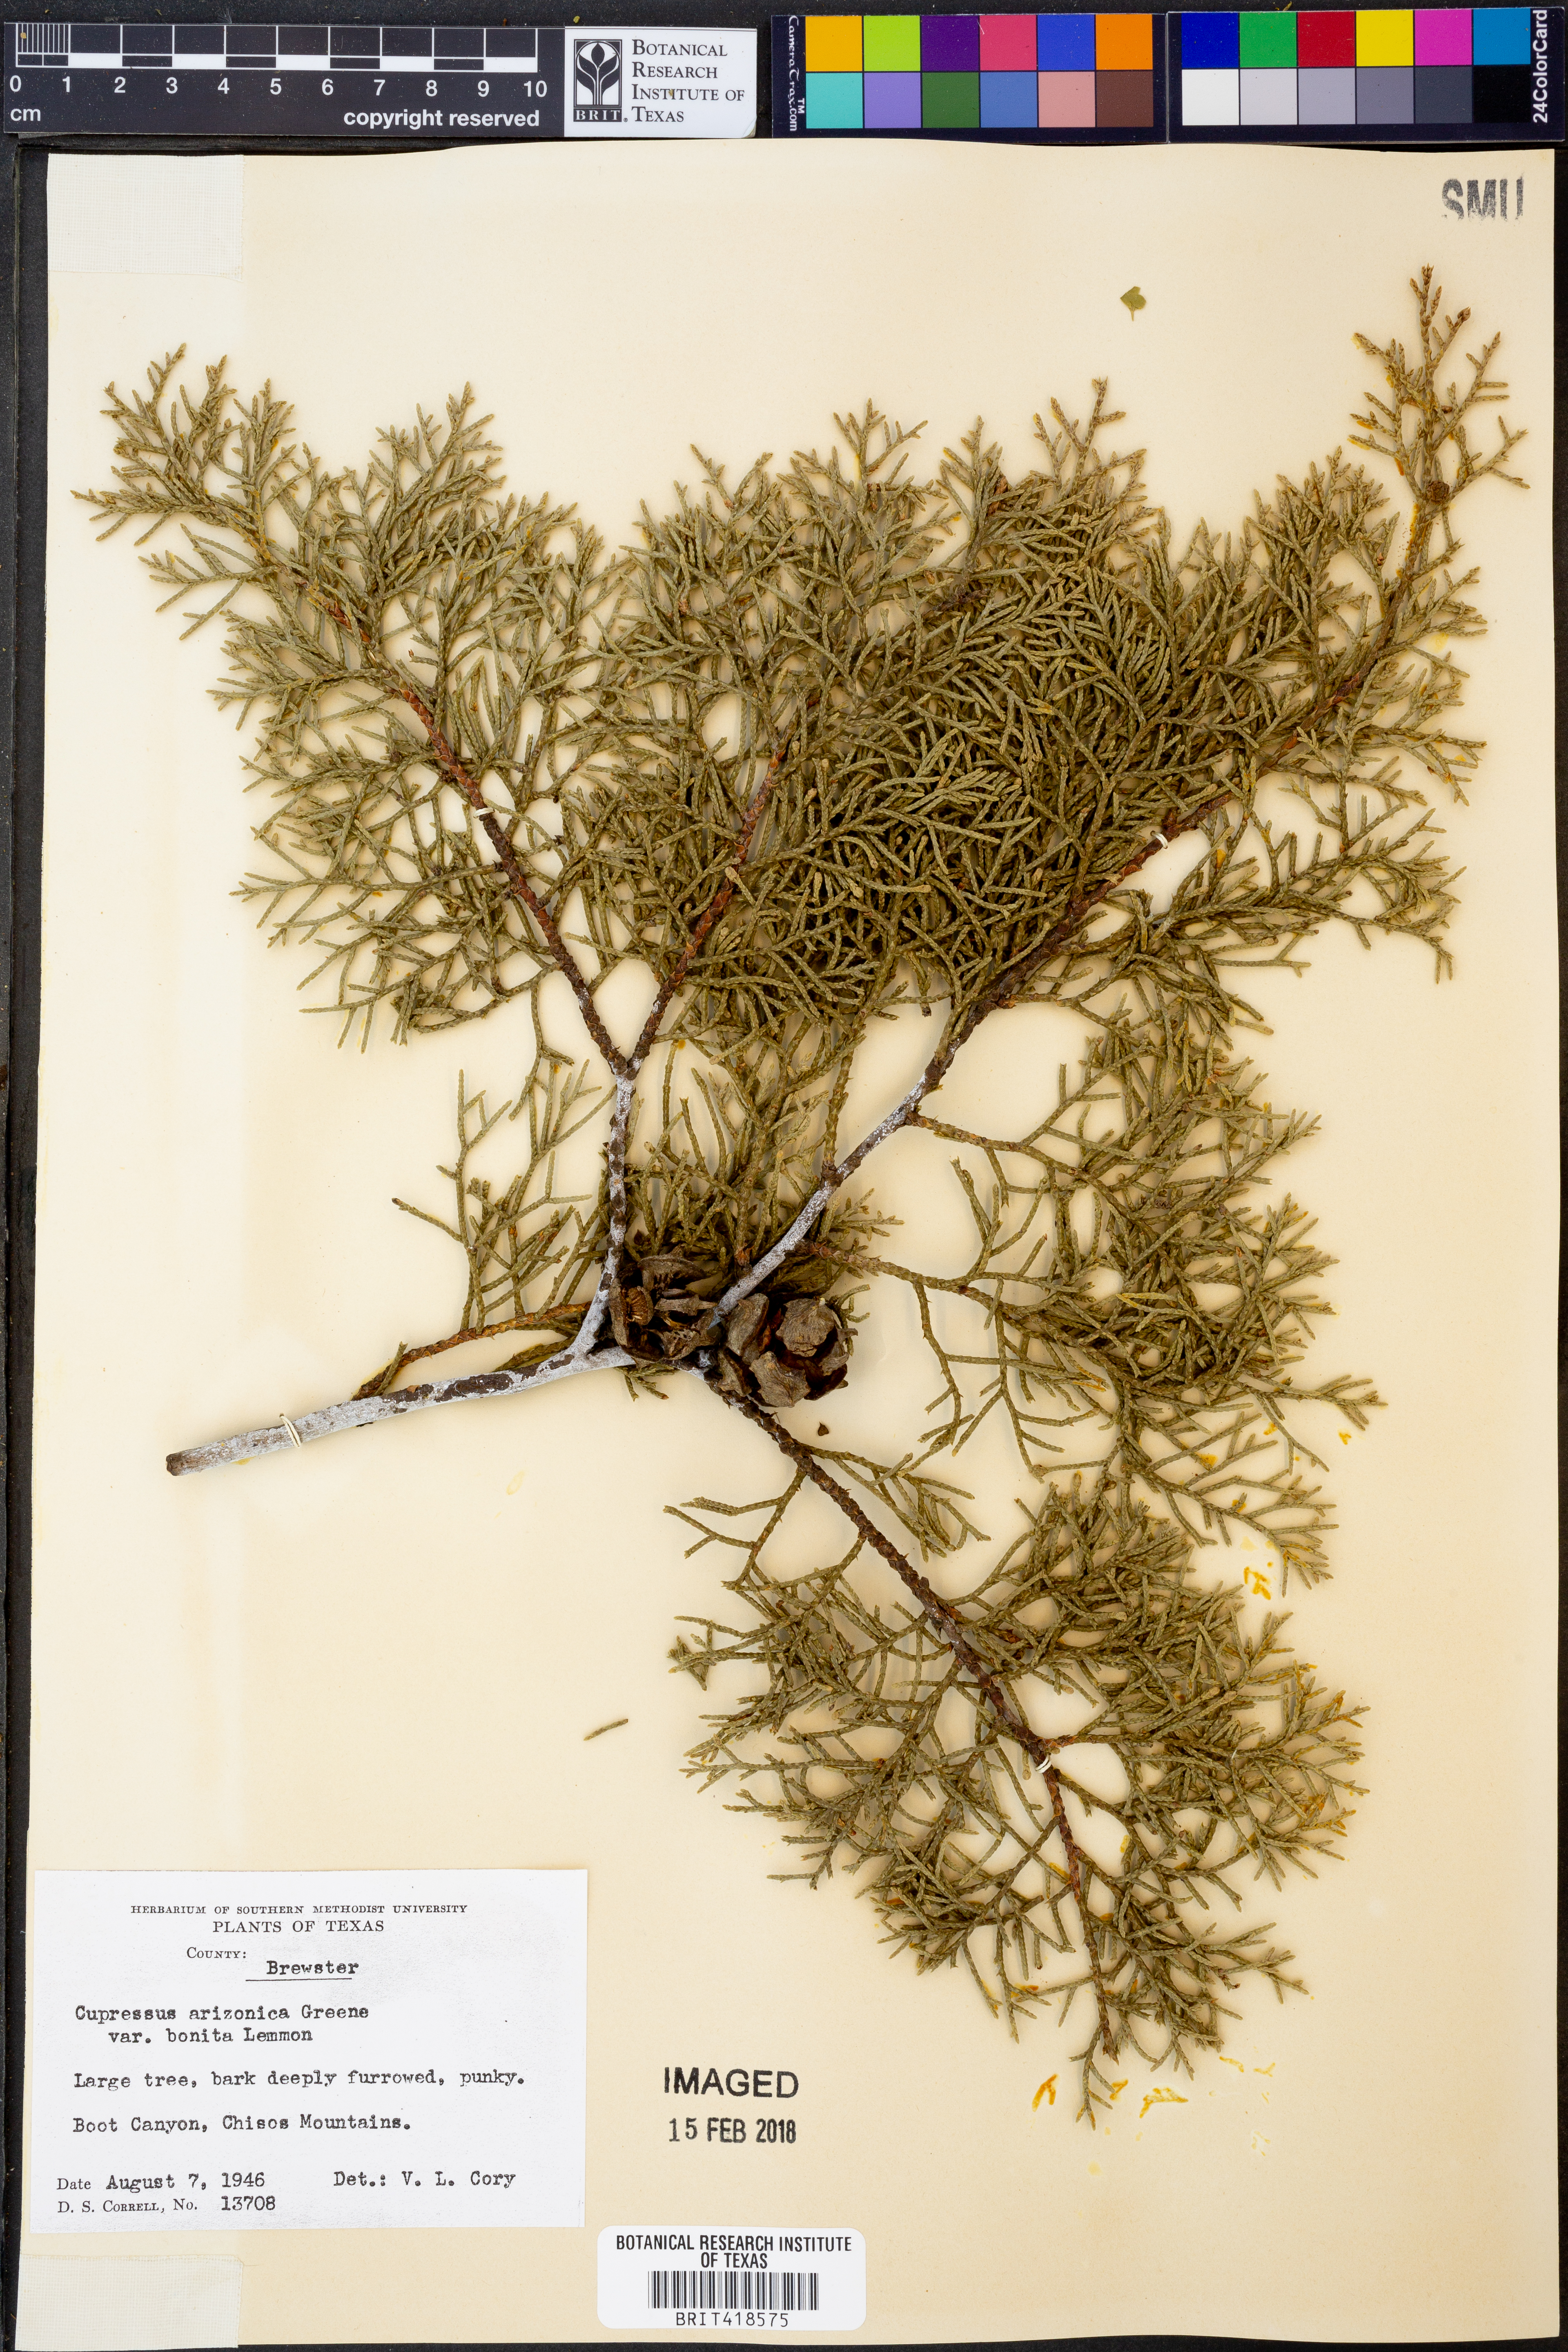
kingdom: Plantae
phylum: Tracheophyta
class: Pinopsida
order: Pinales
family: Cupressaceae
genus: Cupressus
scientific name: Cupressus arizonica
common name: Arizona cypress
